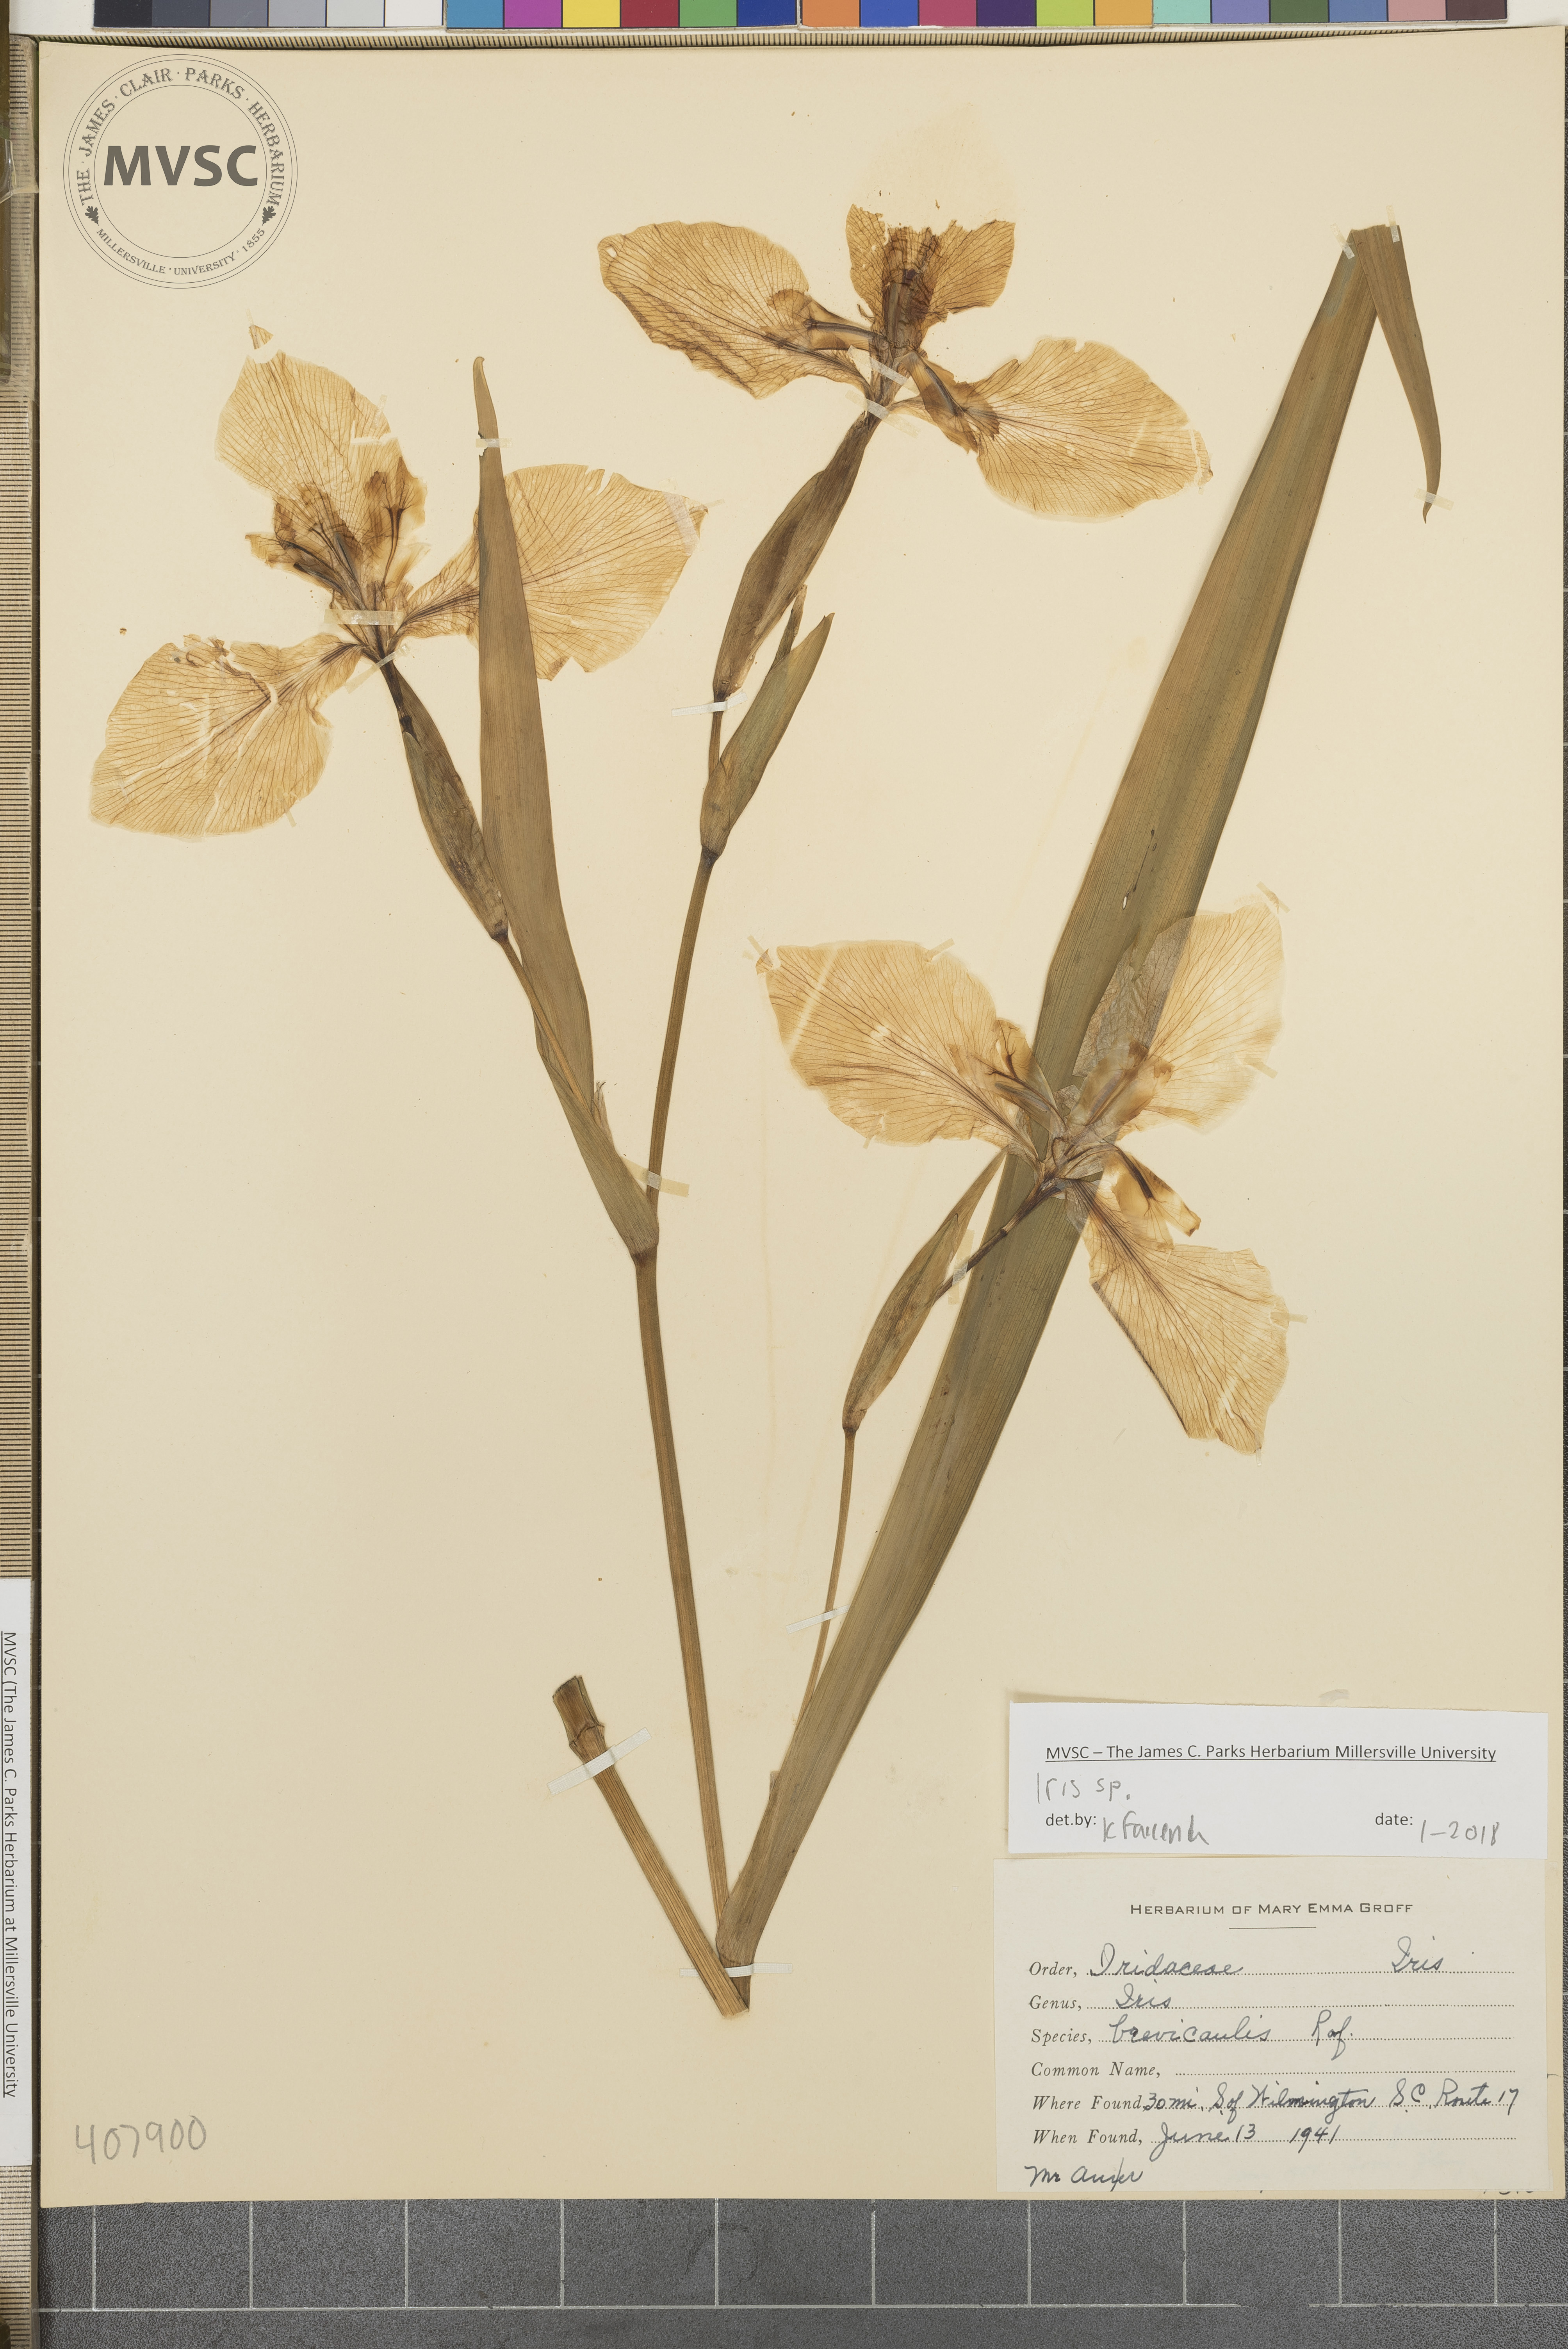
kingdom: Plantae
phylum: Tracheophyta
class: Liliopsida
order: Asparagales
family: Iridaceae
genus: Iris
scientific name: Iris
